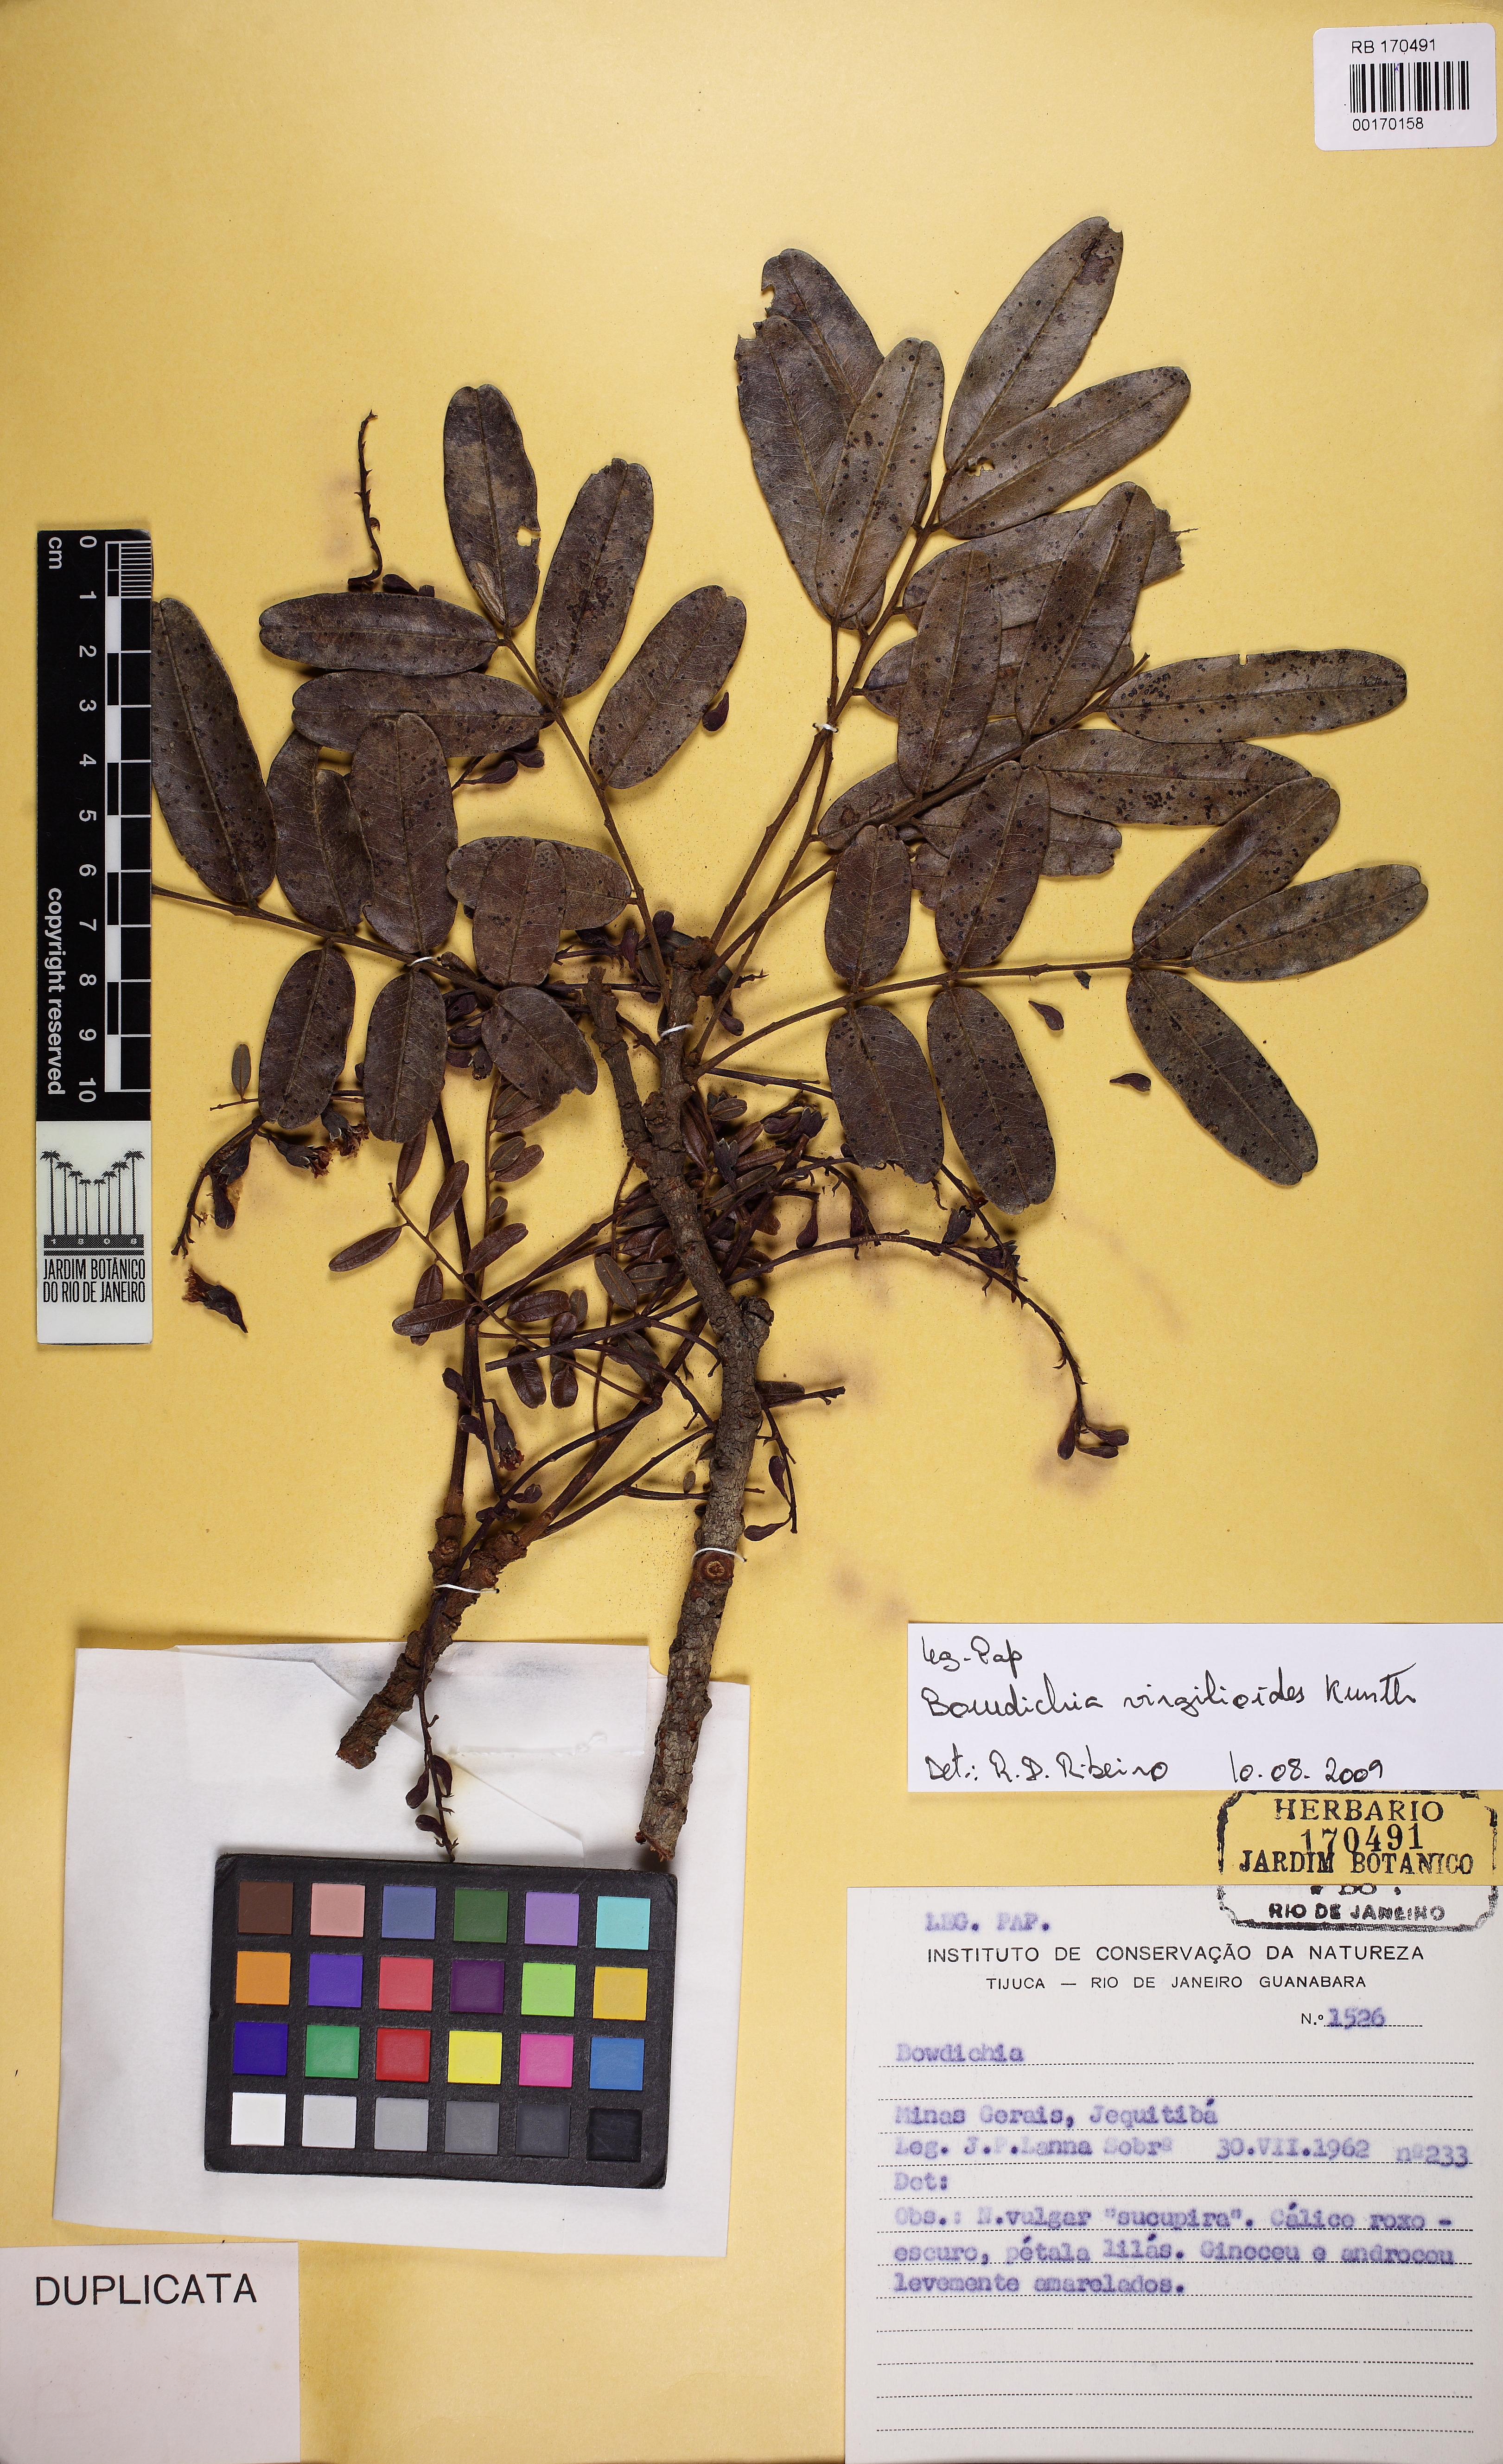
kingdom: Plantae
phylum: Tracheophyta
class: Magnoliopsida
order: Fabales
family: Fabaceae
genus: Bowdichia
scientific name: Bowdichia
